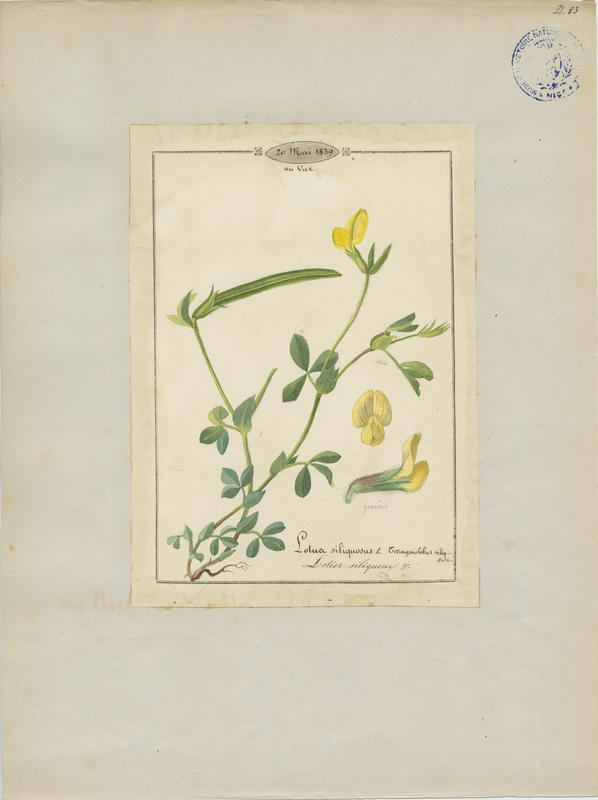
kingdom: Plantae
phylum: Tracheophyta
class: Magnoliopsida
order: Fabales
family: Fabaceae
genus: Lotus
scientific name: Lotus maritimus
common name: Dragon's-teeth
